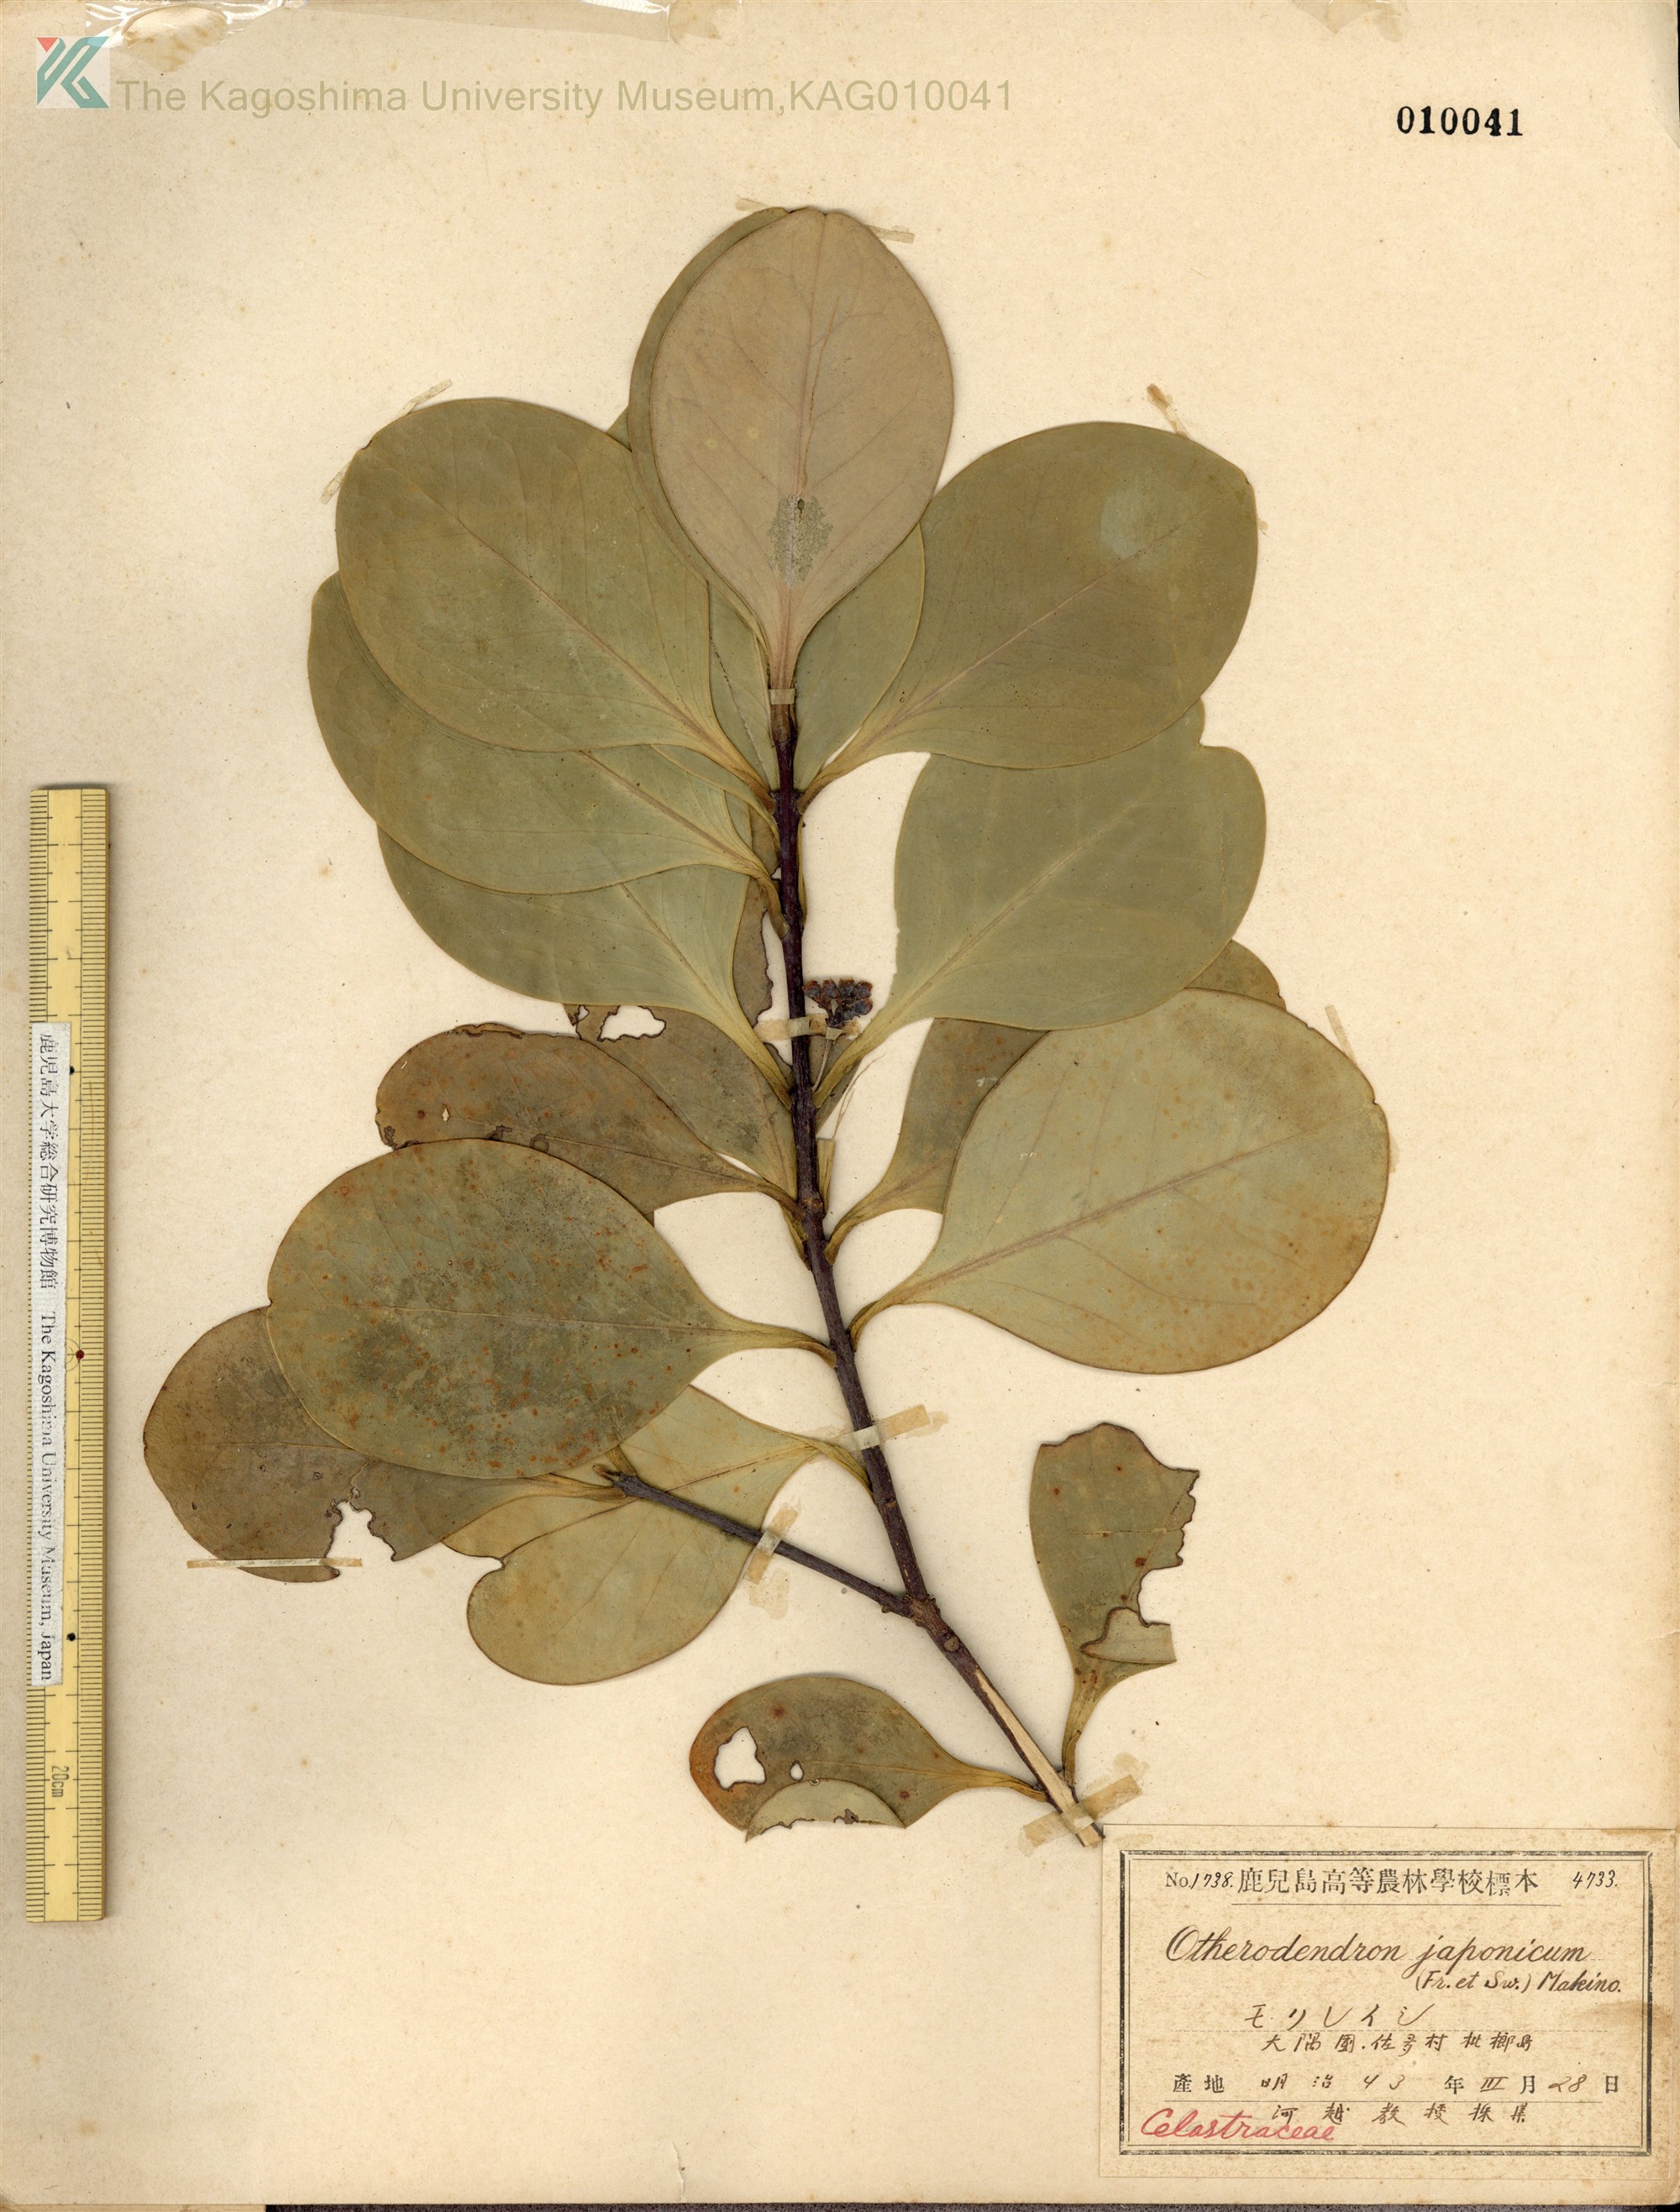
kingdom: Plantae
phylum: Tracheophyta
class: Magnoliopsida
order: Celastrales
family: Celastraceae
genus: Microtropis
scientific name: Microtropis japonica
